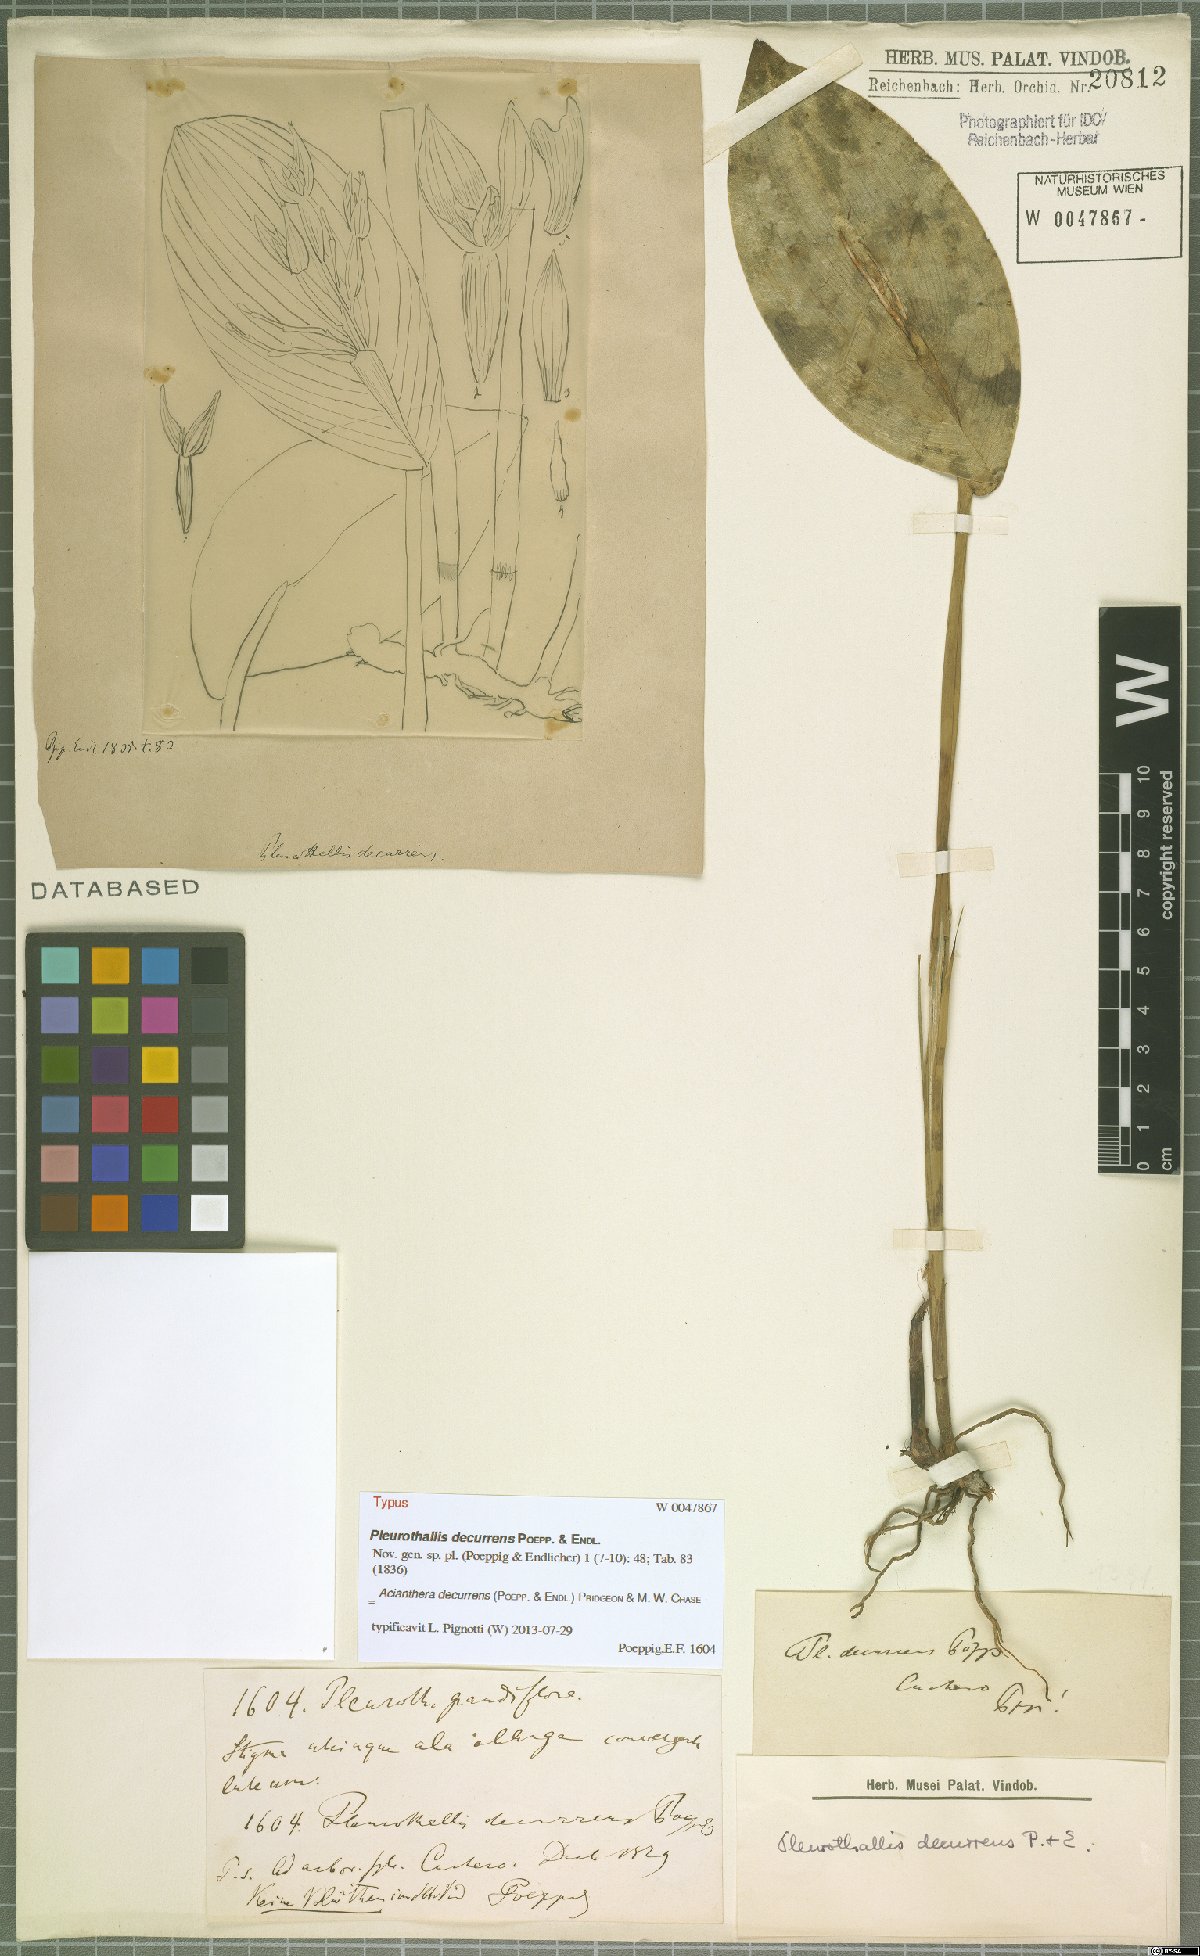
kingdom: Plantae
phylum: Tracheophyta
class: Liliopsida
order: Asparagales
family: Orchidaceae
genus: Acianthera
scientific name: Acianthera decurrens
